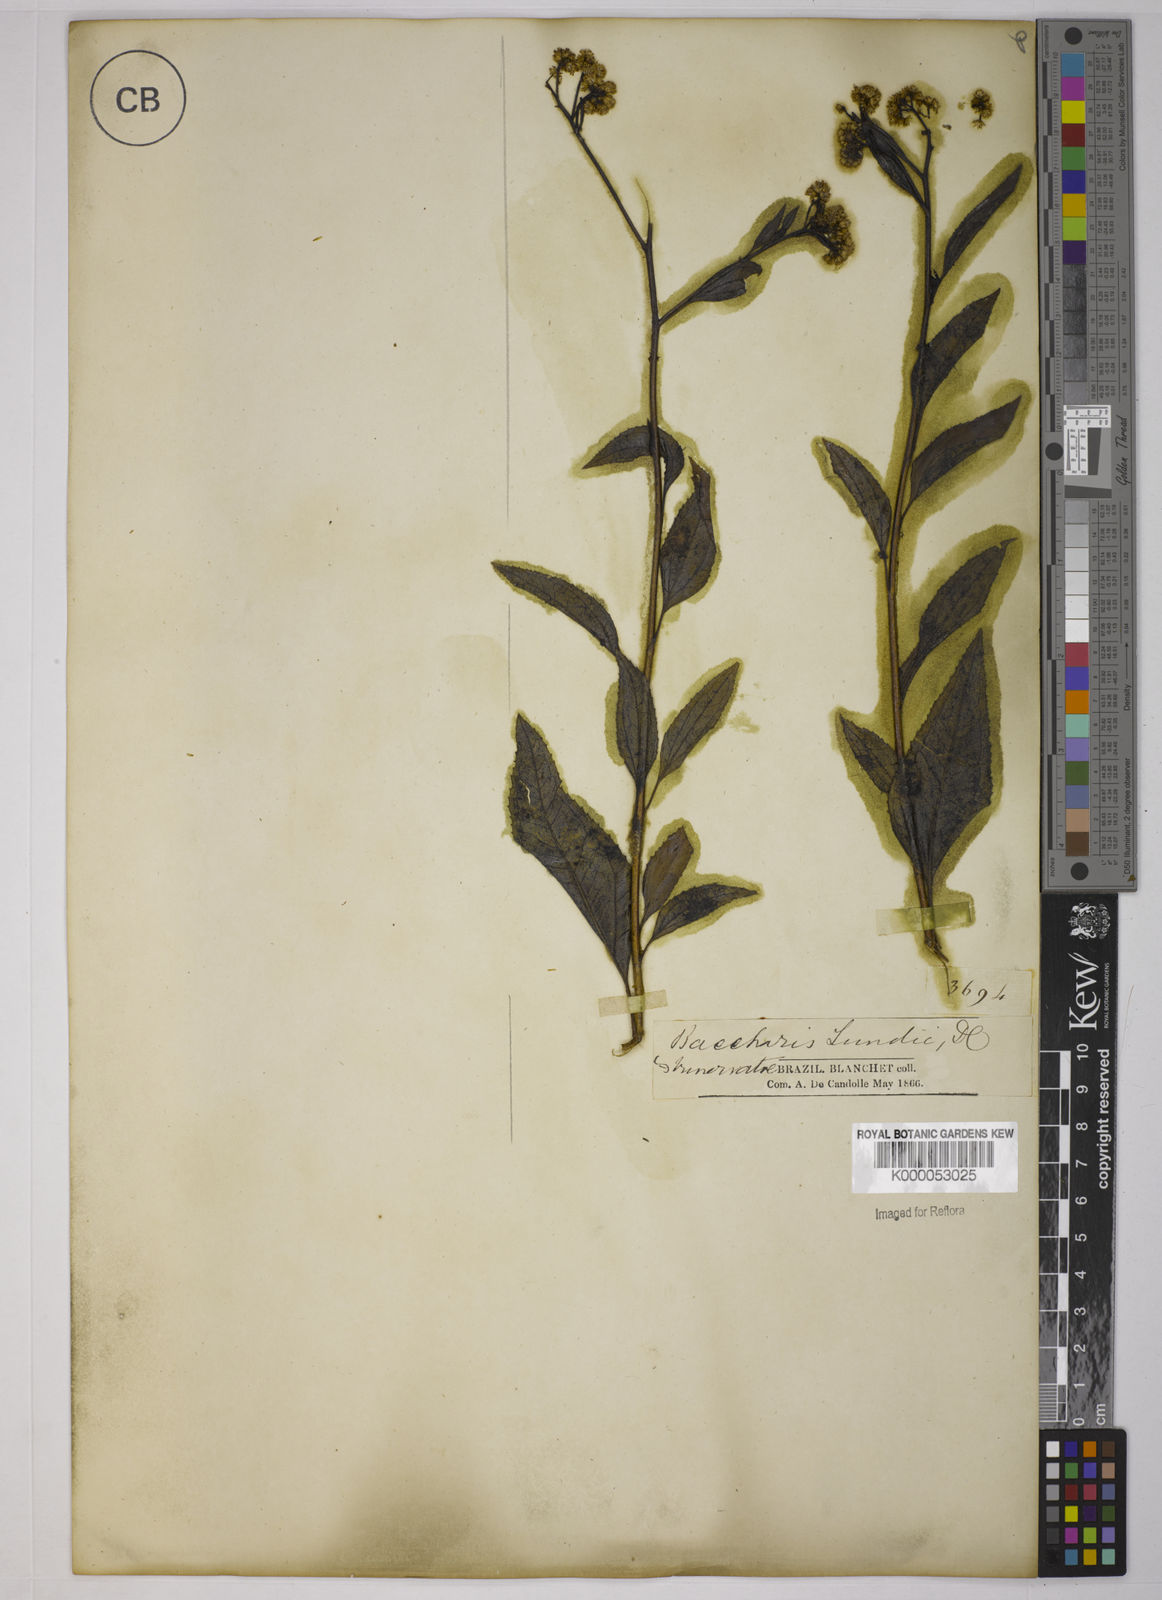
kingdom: Plantae
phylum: Tracheophyta
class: Magnoliopsida
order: Asterales
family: Asteraceae
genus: Baccharis
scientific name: Baccharis serrulata
